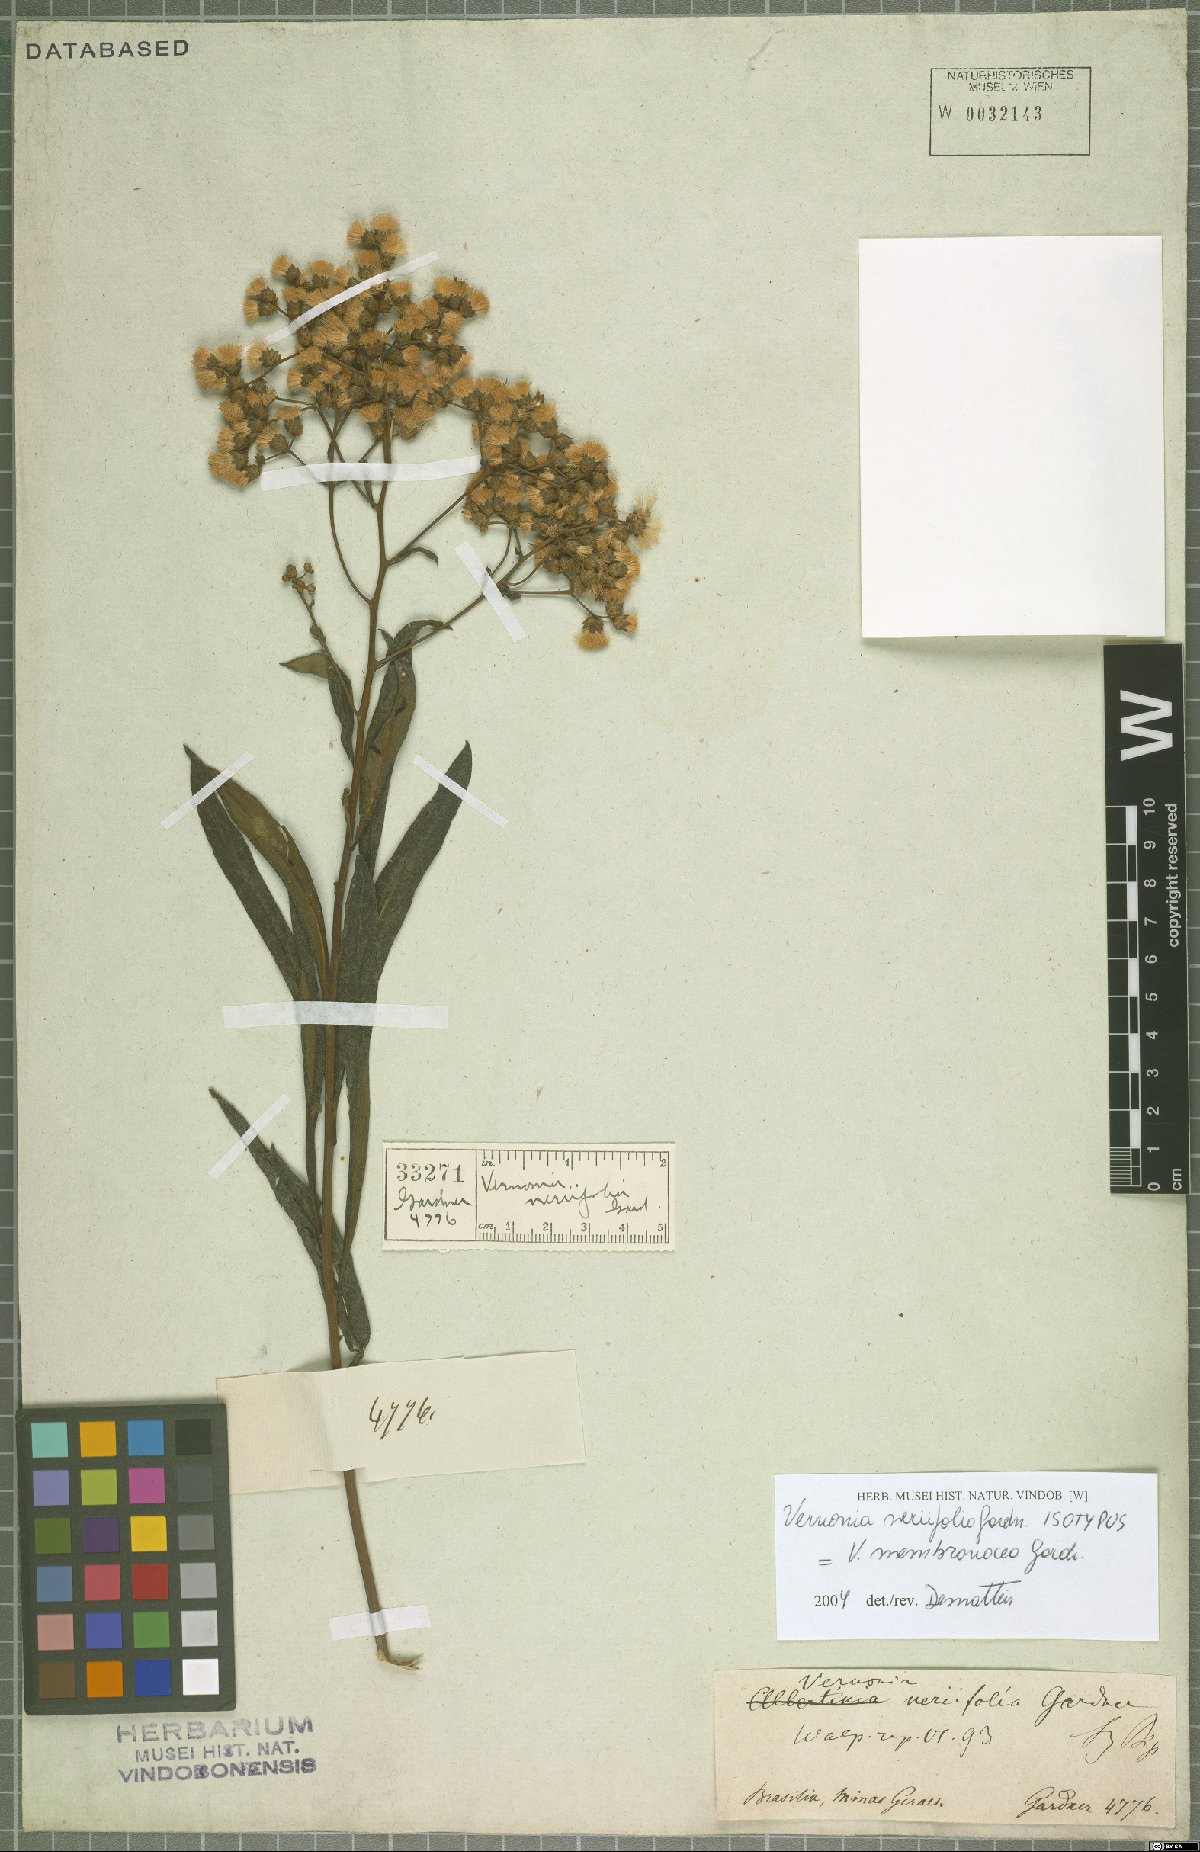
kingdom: Plantae
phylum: Tracheophyta
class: Magnoliopsida
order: Asterales
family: Asteraceae
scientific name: Asteraceae
